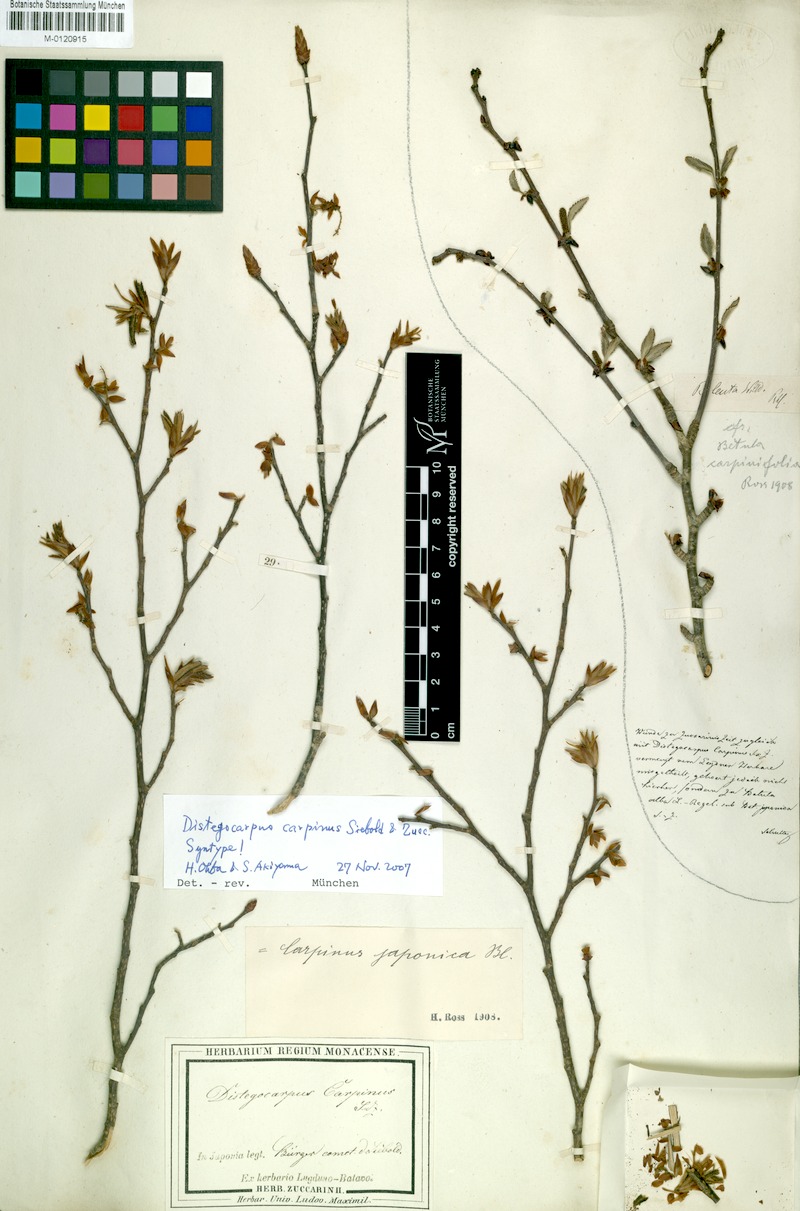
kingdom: Plantae
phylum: Tracheophyta
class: Magnoliopsida
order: Fagales
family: Betulaceae
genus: Carpinus
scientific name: Carpinus japonica
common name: Japanese hornbeam
